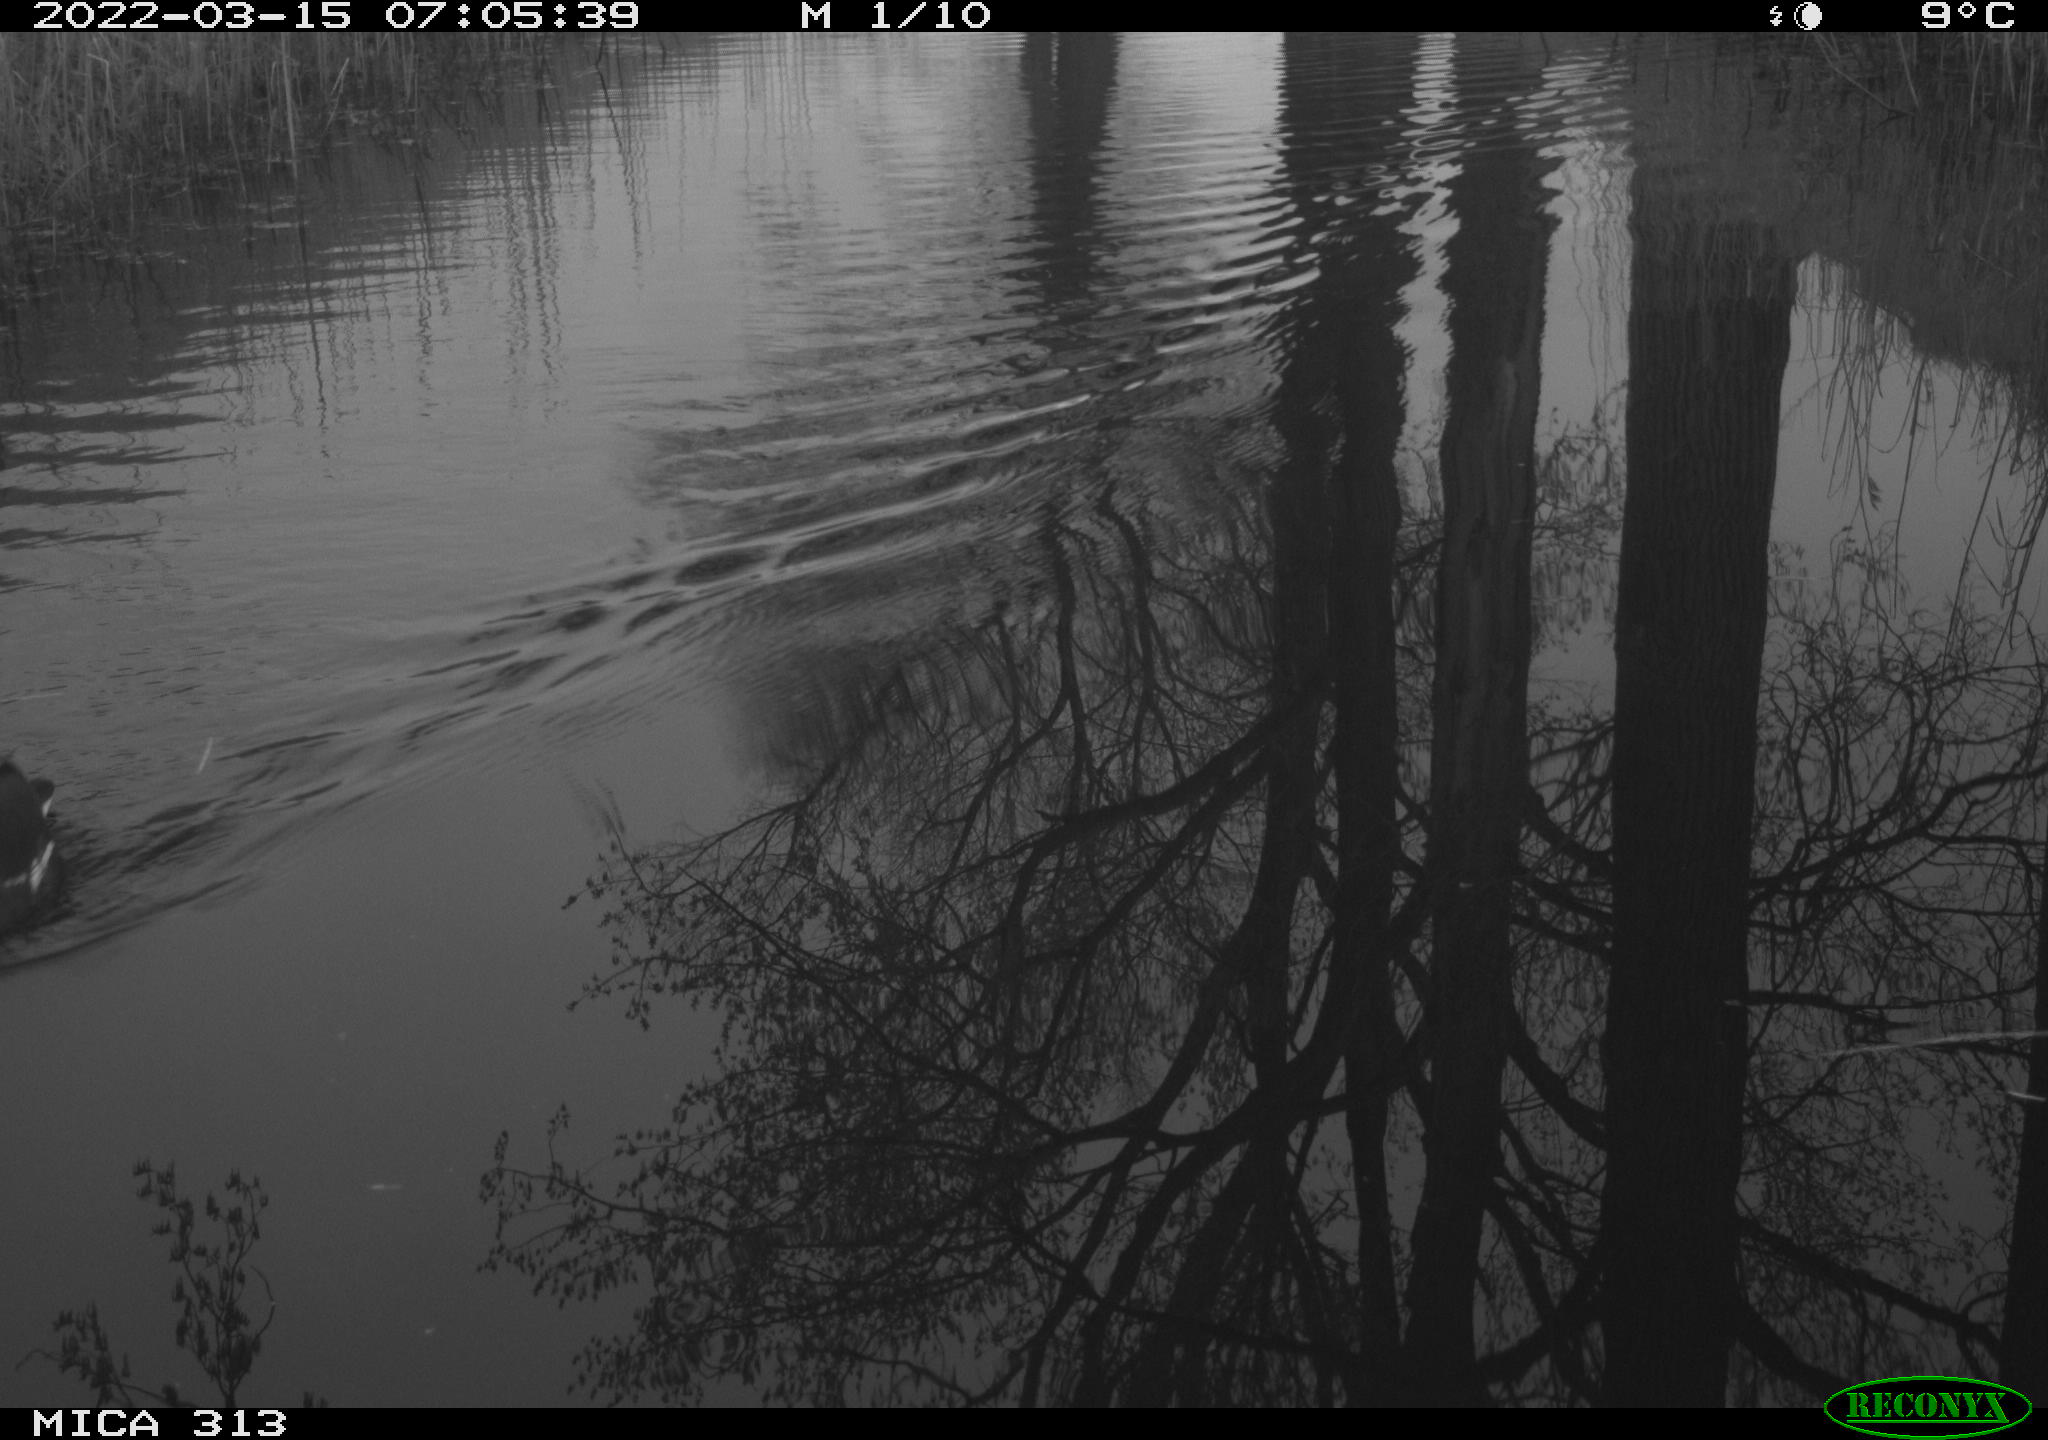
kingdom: Animalia
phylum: Chordata
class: Aves
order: Gruiformes
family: Rallidae
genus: Gallinula
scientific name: Gallinula chloropus
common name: Common moorhen
